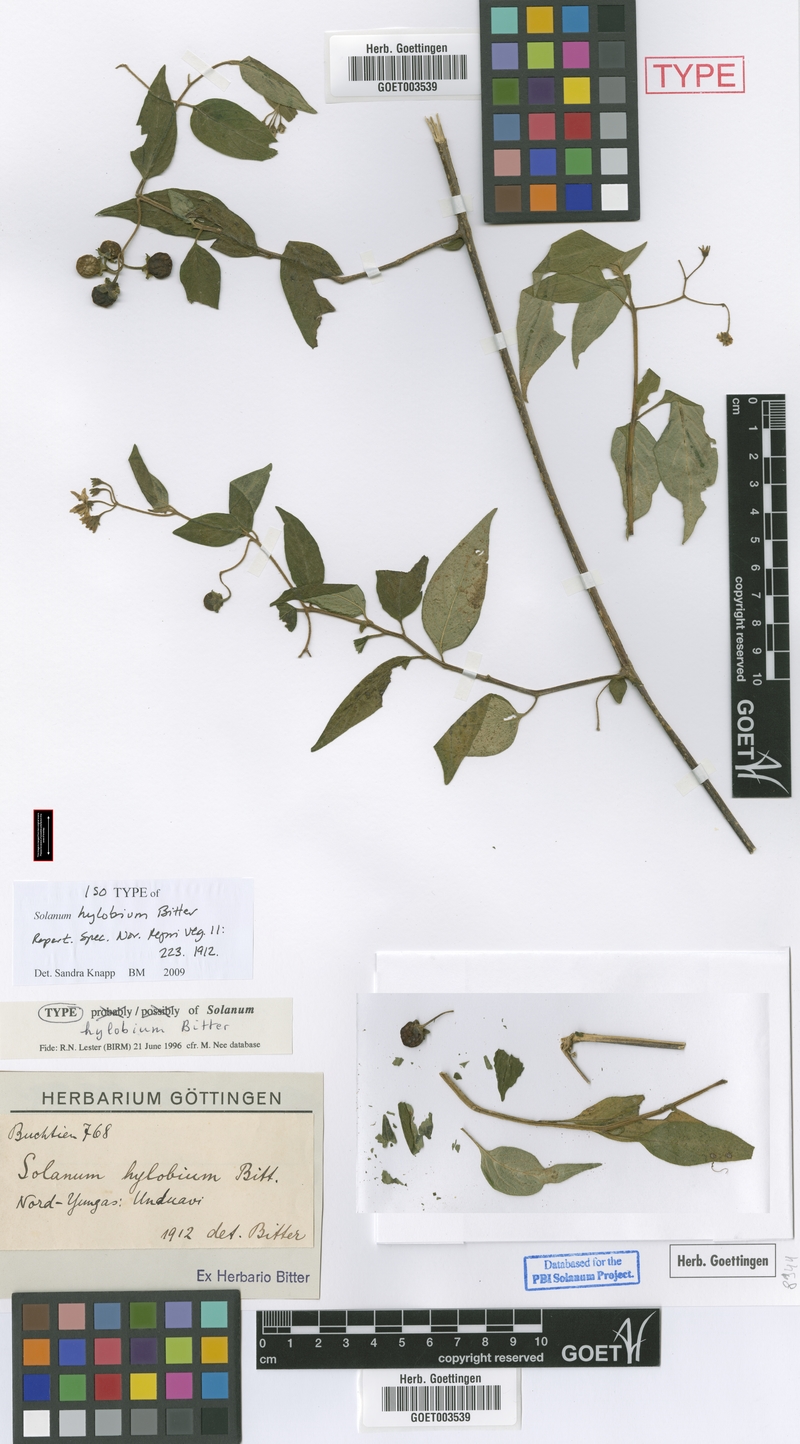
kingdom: Plantae
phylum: Tracheophyta
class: Magnoliopsida
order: Solanales
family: Solanaceae
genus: Solanum
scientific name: Solanum pallidum
